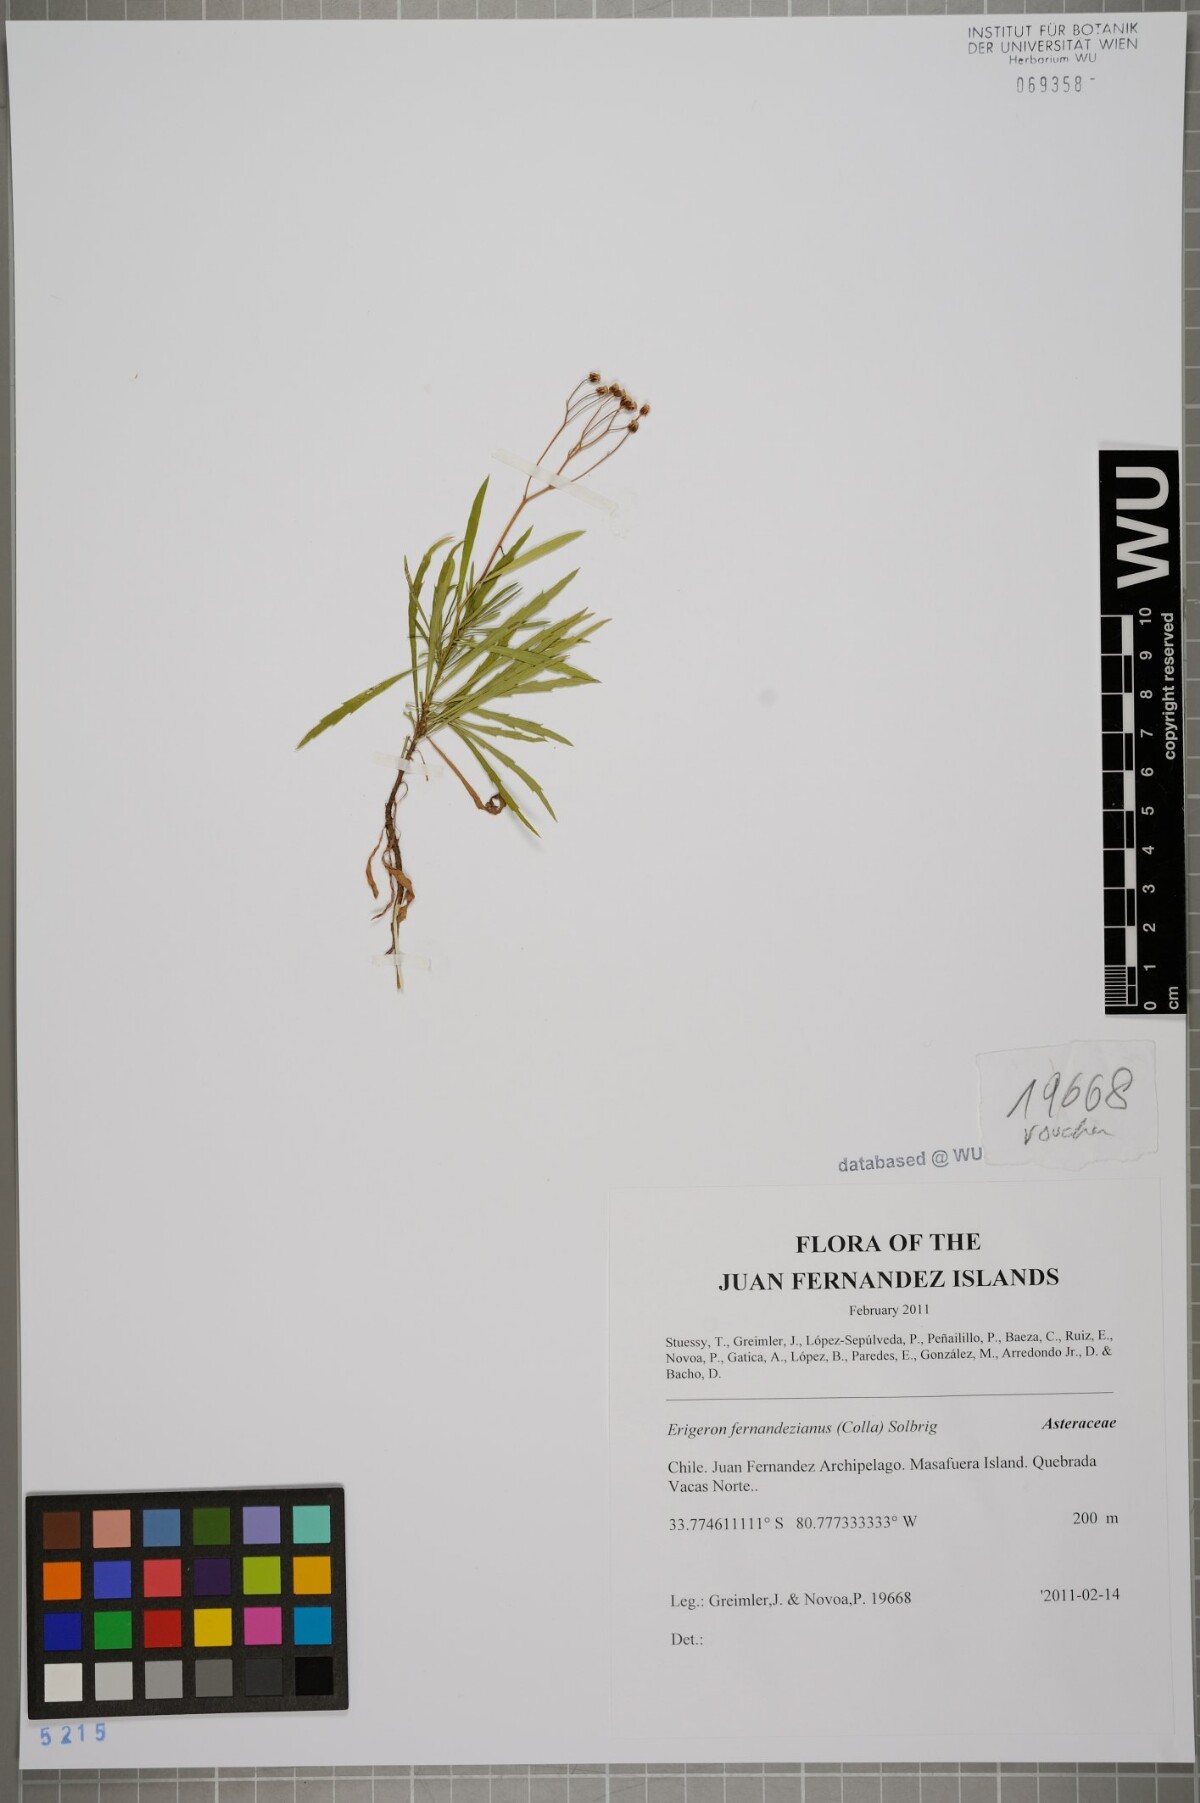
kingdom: Plantae
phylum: Tracheophyta
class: Magnoliopsida
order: Asterales
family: Asteraceae
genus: Erigeron
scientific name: Erigeron fernandezianus
